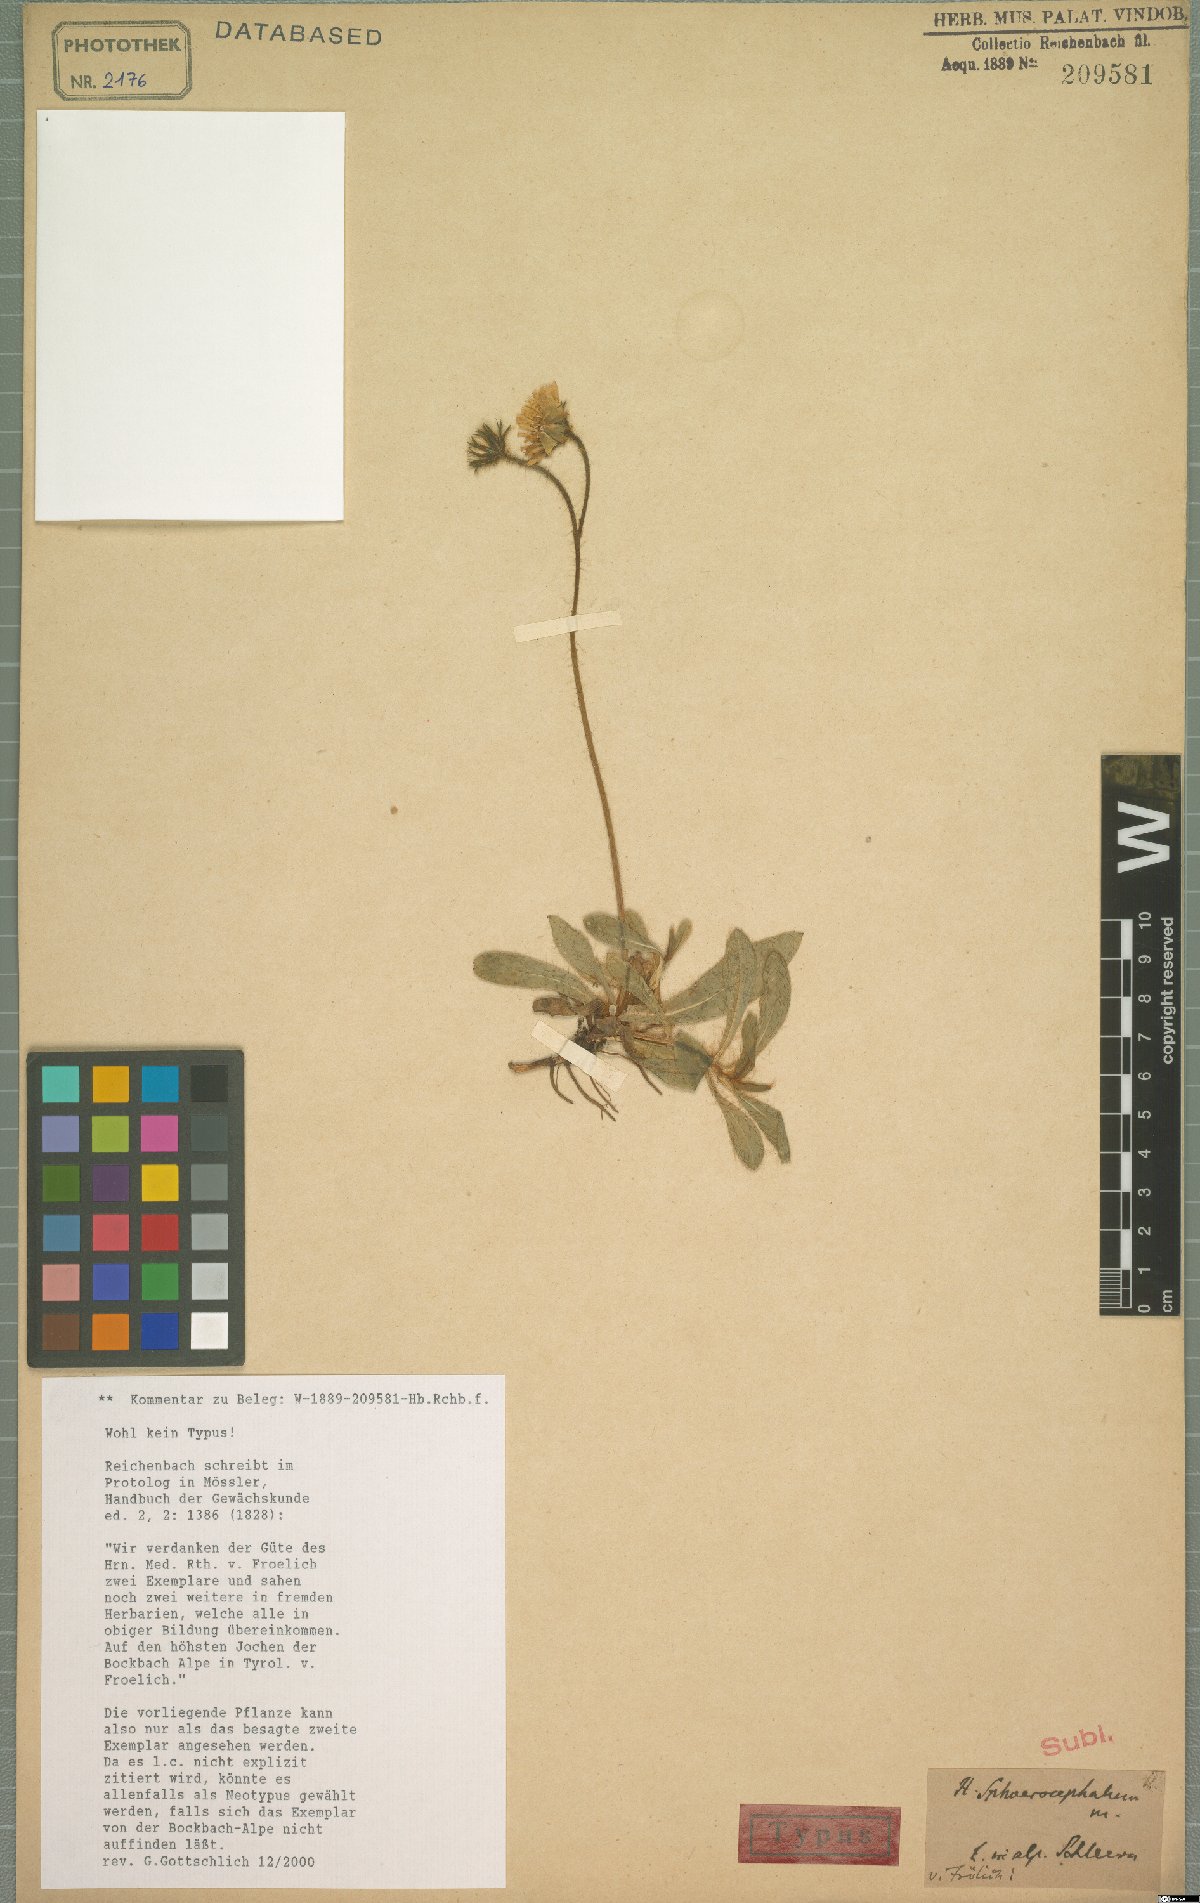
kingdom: Plantae
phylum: Tracheophyta
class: Magnoliopsida
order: Asterales
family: Asteraceae
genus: Pilosella
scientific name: Pilosella sphaerocephala
